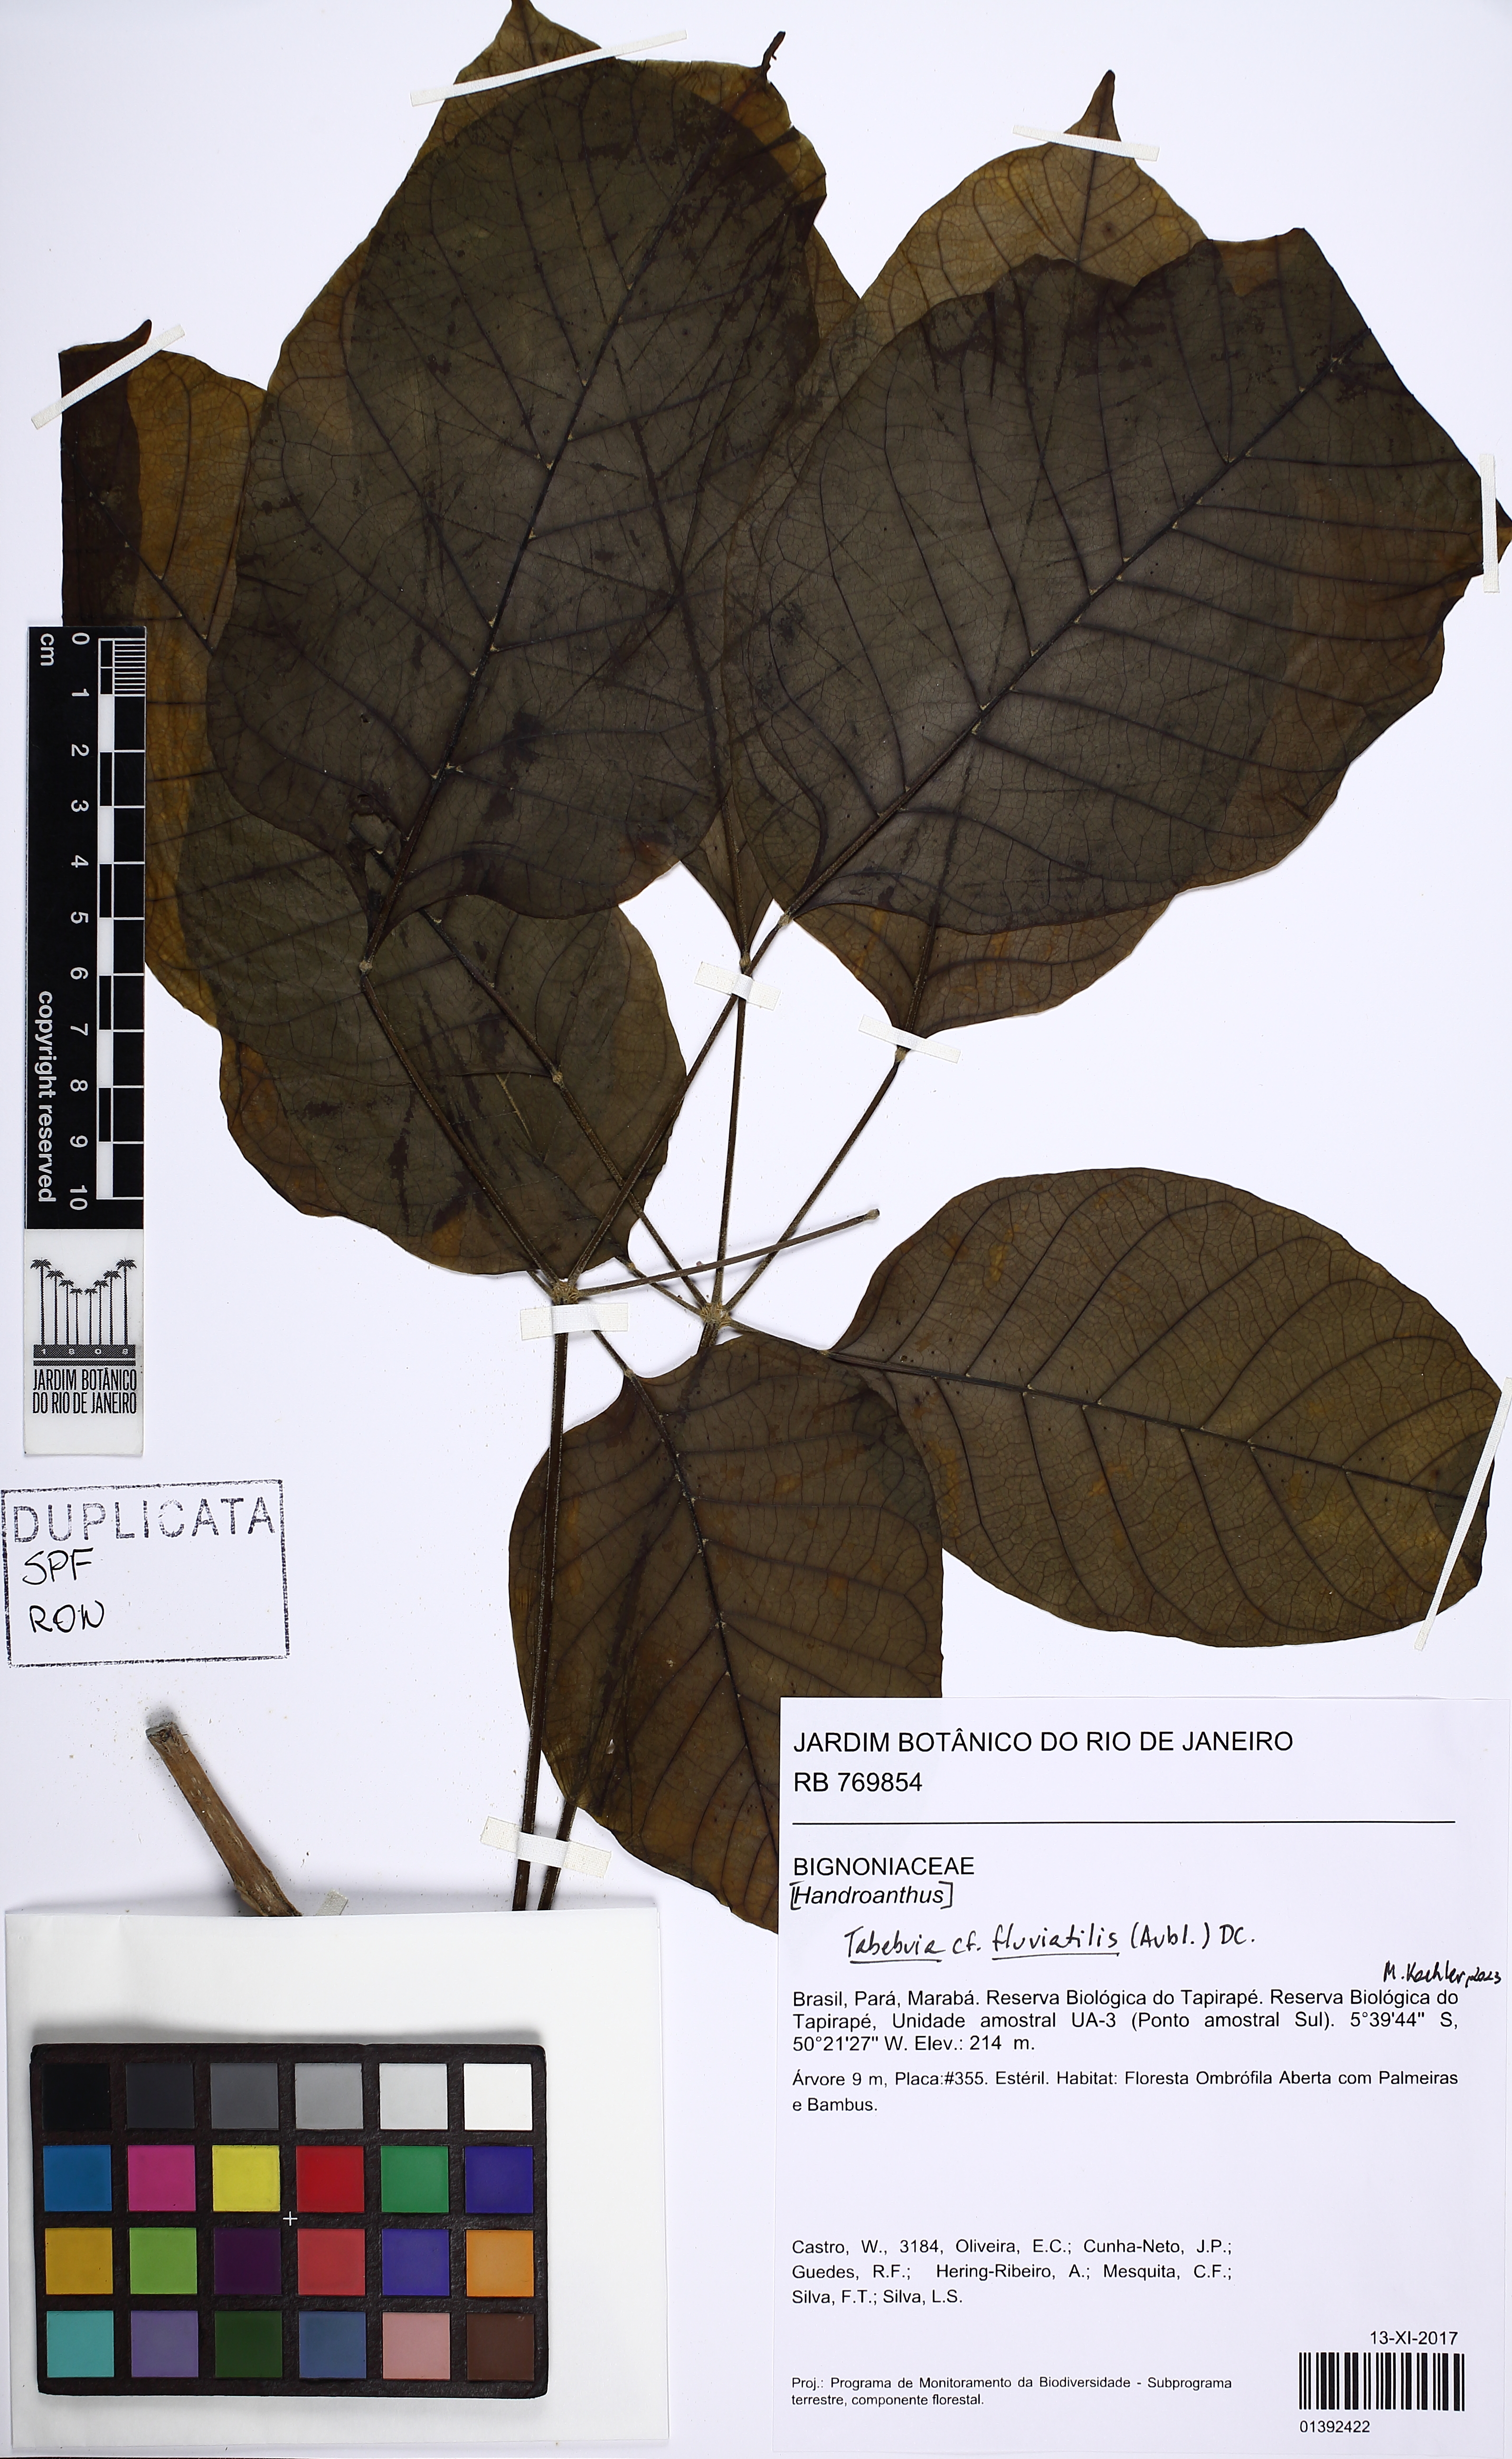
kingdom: Plantae
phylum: Tracheophyta
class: Magnoliopsida
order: Lamiales
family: Bignoniaceae
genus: Tabebuia
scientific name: Tabebuia fluviatilis
